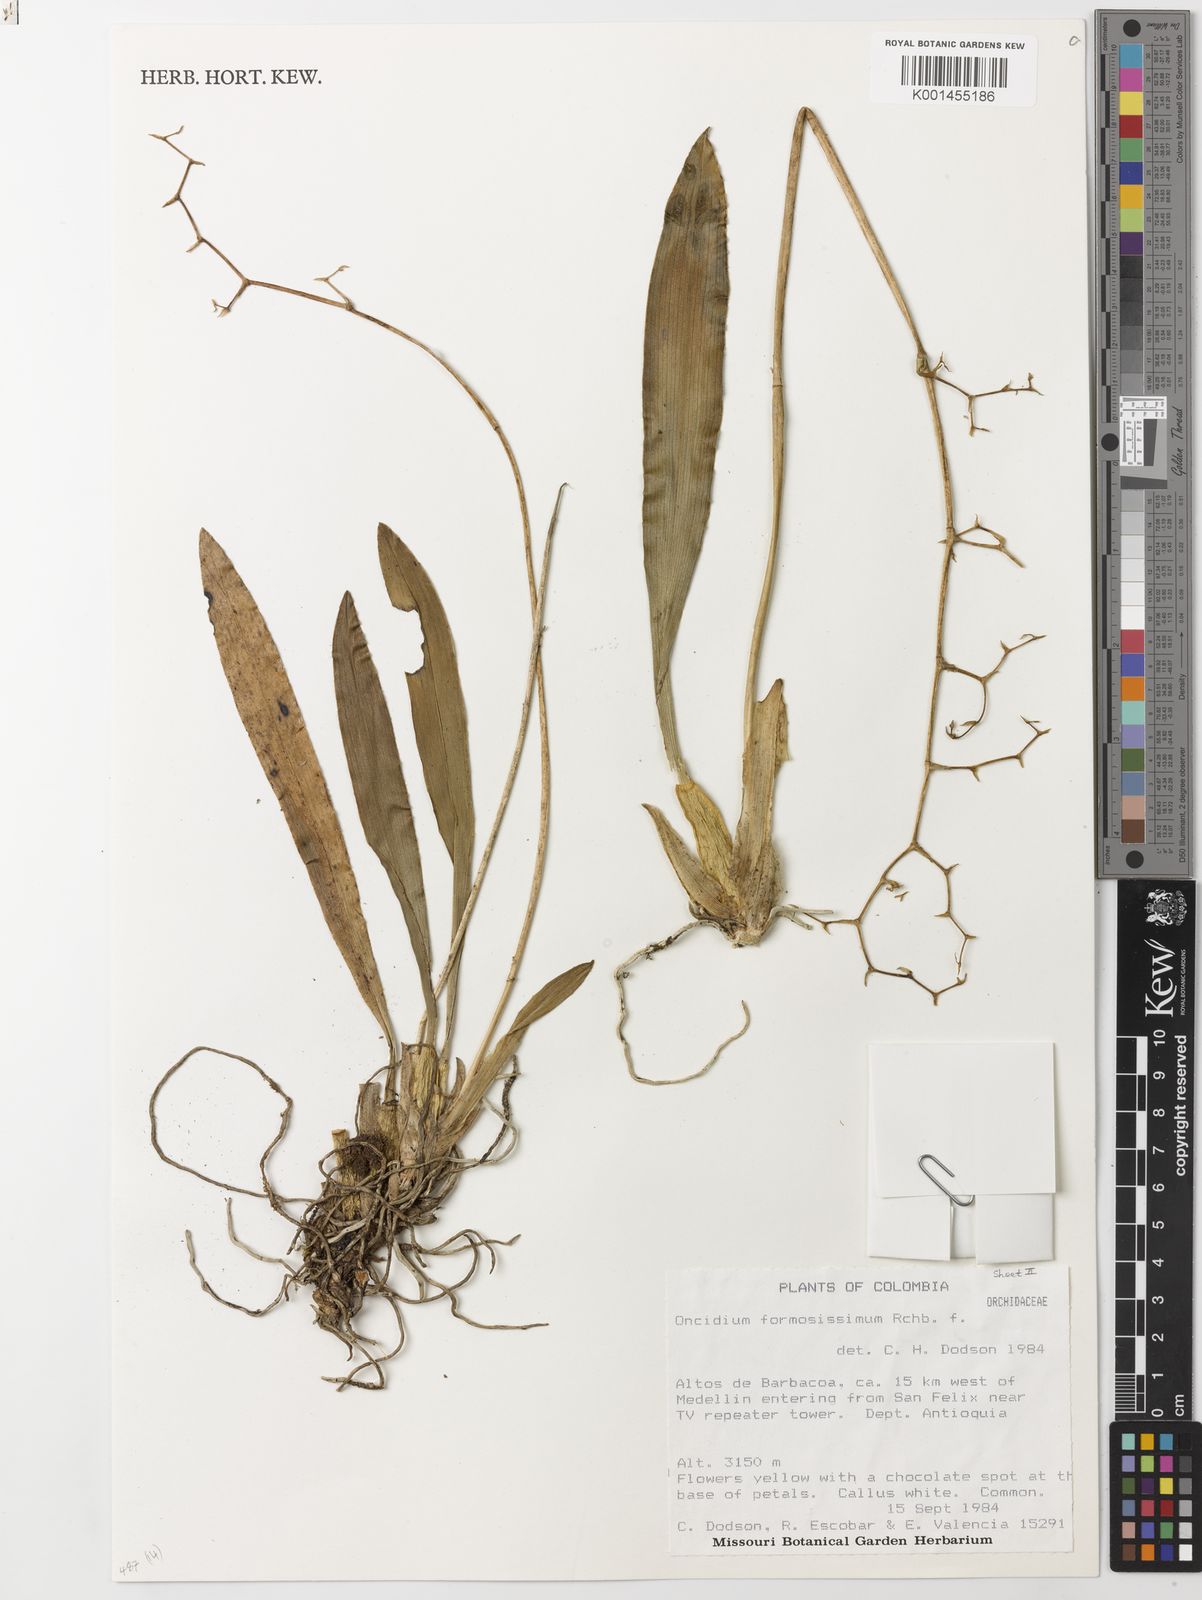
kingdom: Plantae
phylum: Tracheophyta
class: Liliopsida
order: Asparagales
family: Orchidaceae
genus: Oncidium
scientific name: Oncidium cultratum
